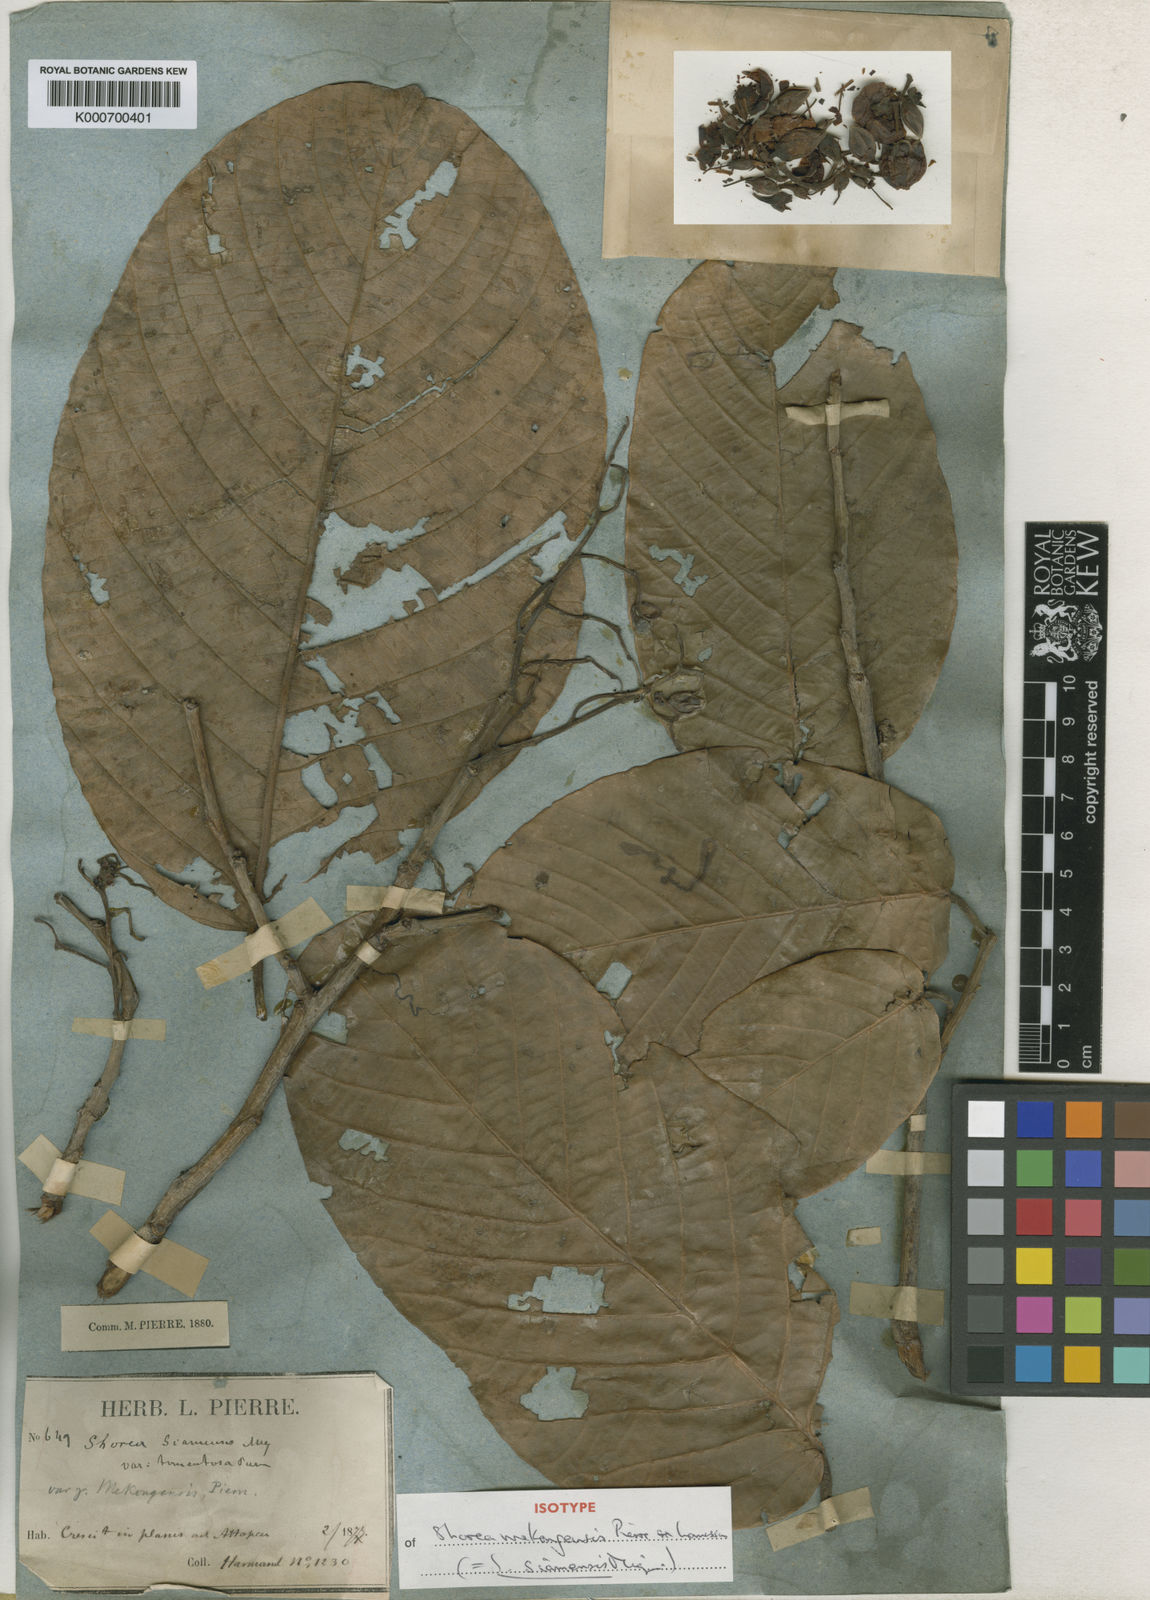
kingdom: Plantae
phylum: Tracheophyta
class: Magnoliopsida
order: Malvales
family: Dipterocarpaceae
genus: Pentacme
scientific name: Pentacme siamensis
